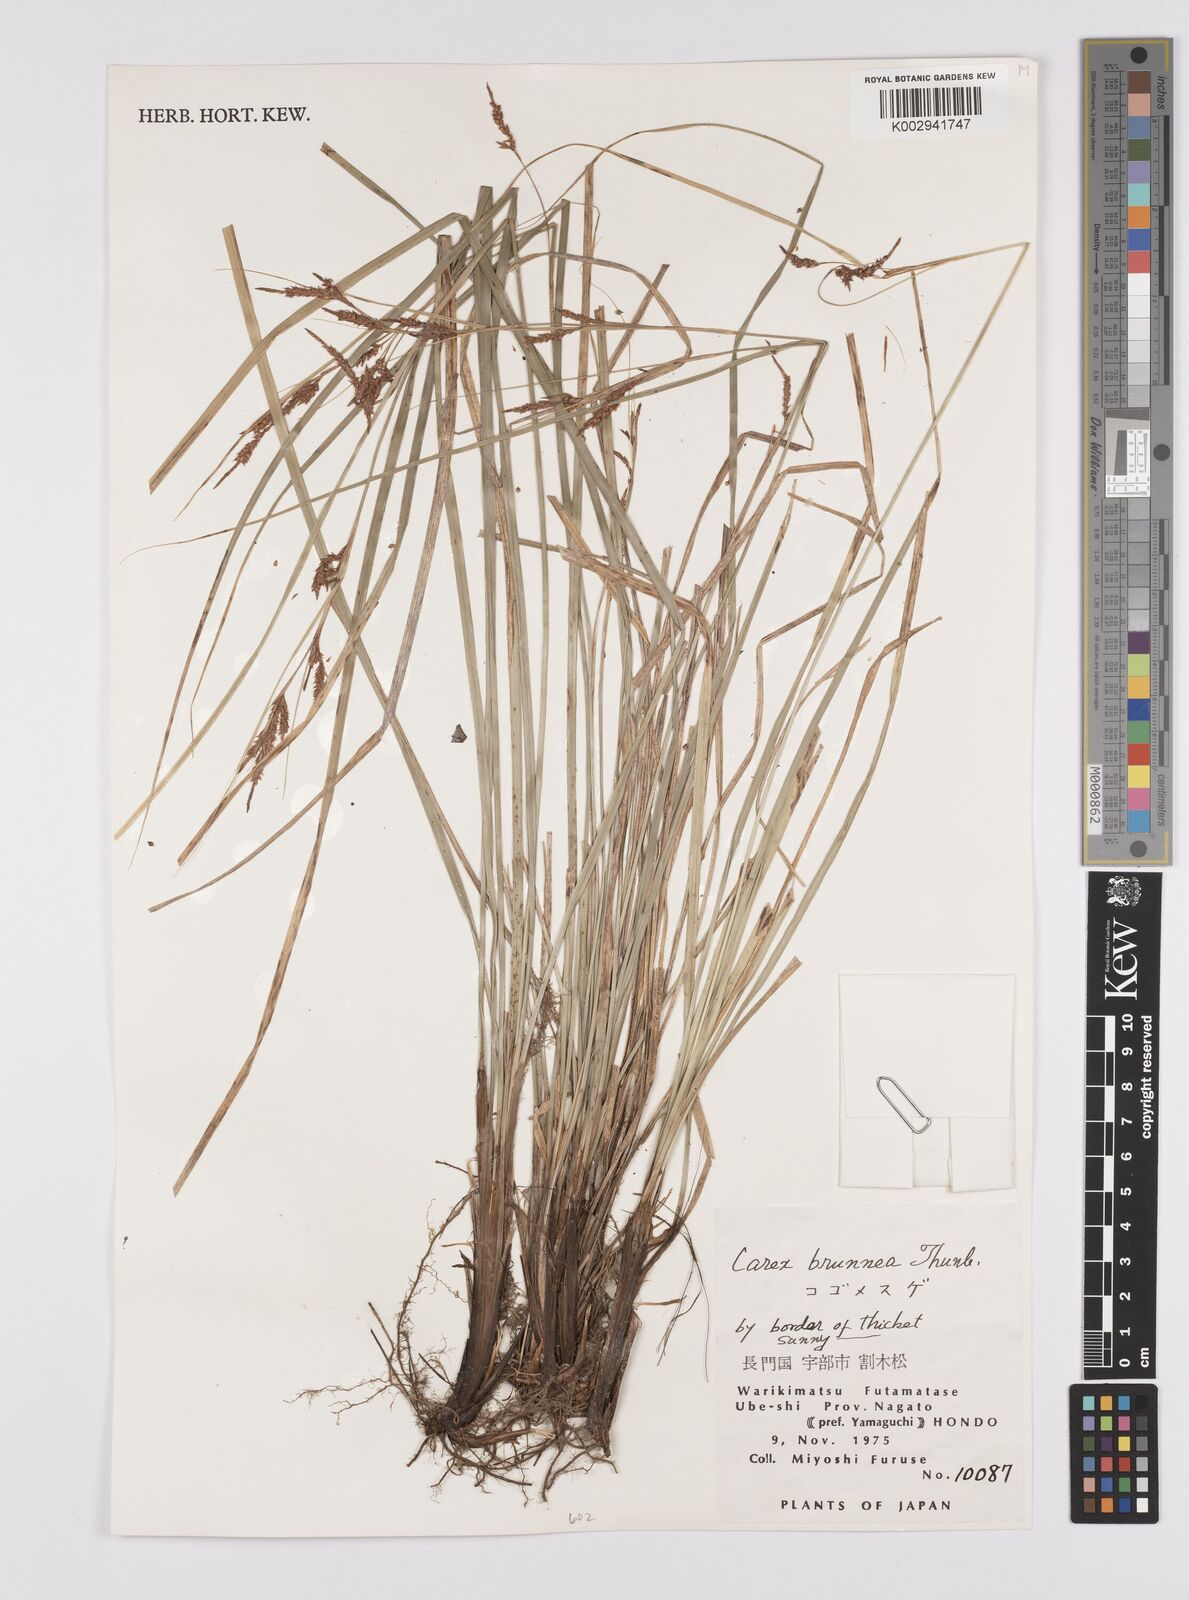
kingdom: Plantae
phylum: Tracheophyta
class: Liliopsida
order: Poales
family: Cyperaceae
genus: Carex
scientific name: Carex brunnea
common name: Greater brown sedge
